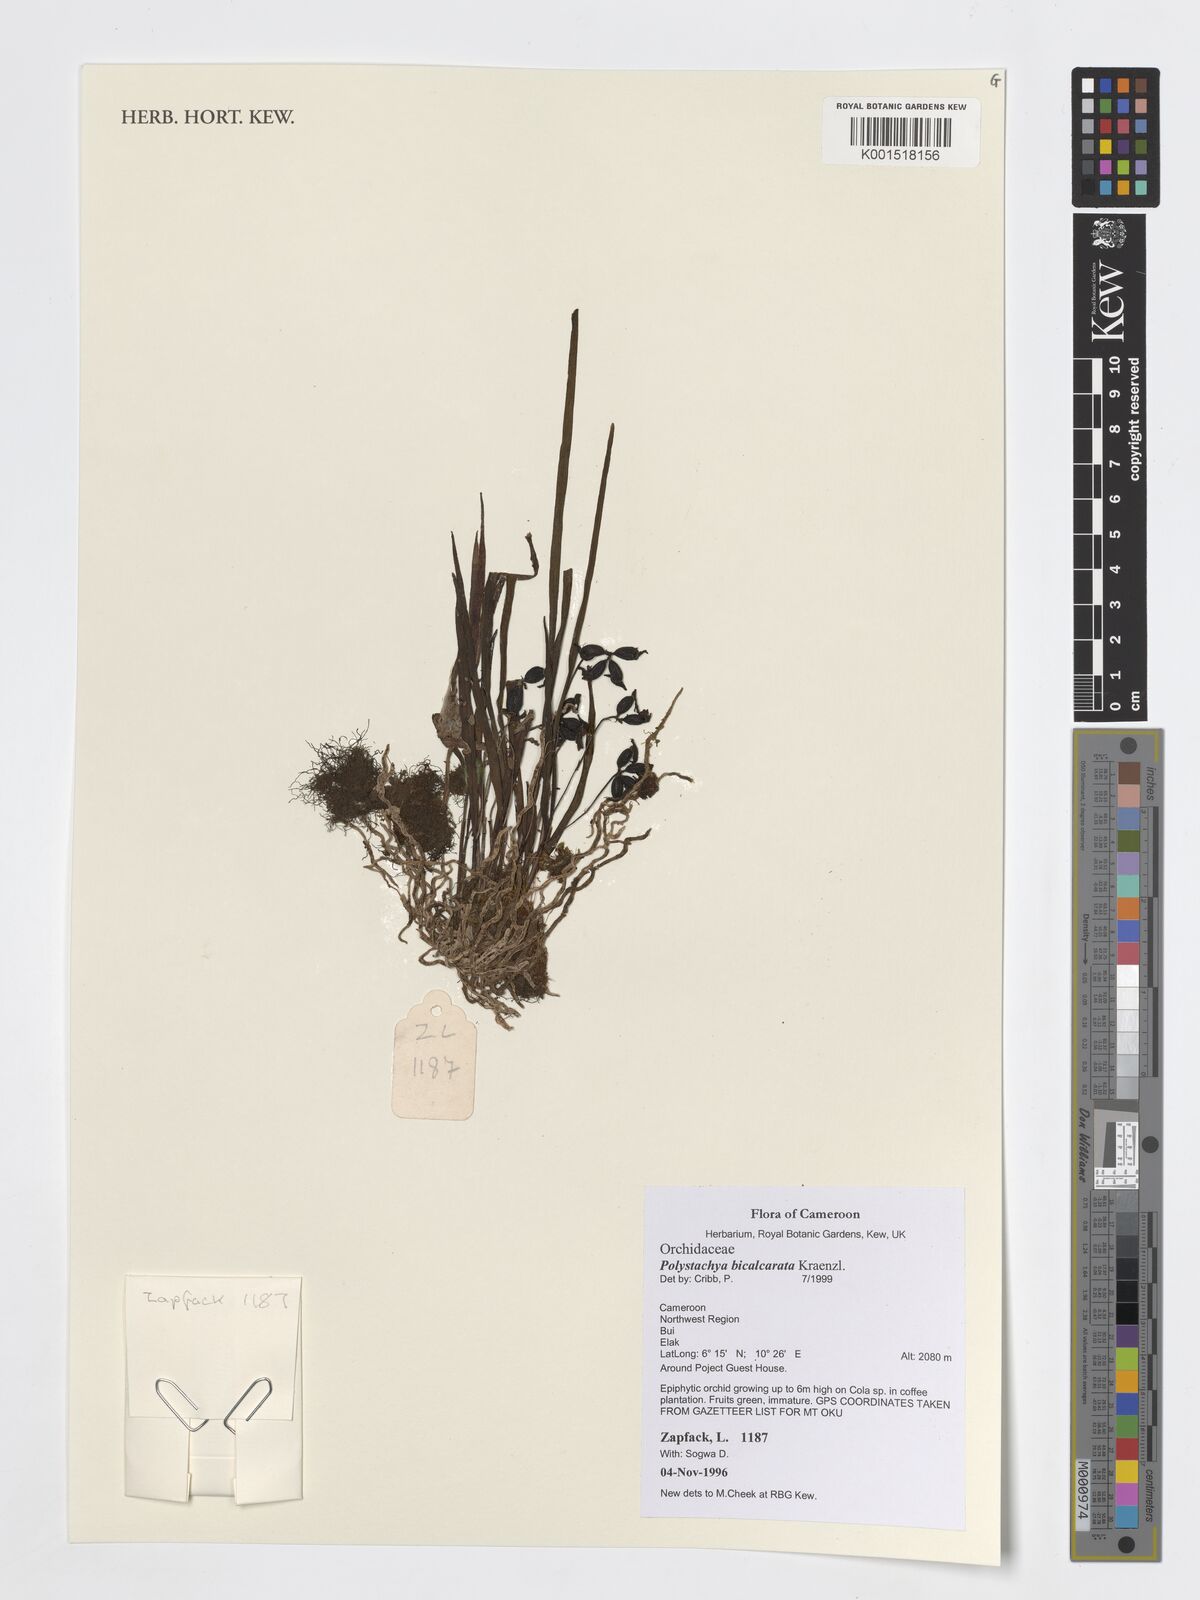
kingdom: Plantae
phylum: Tracheophyta
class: Liliopsida
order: Asparagales
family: Orchidaceae
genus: Polystachya
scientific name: Polystachya bicalcarata
